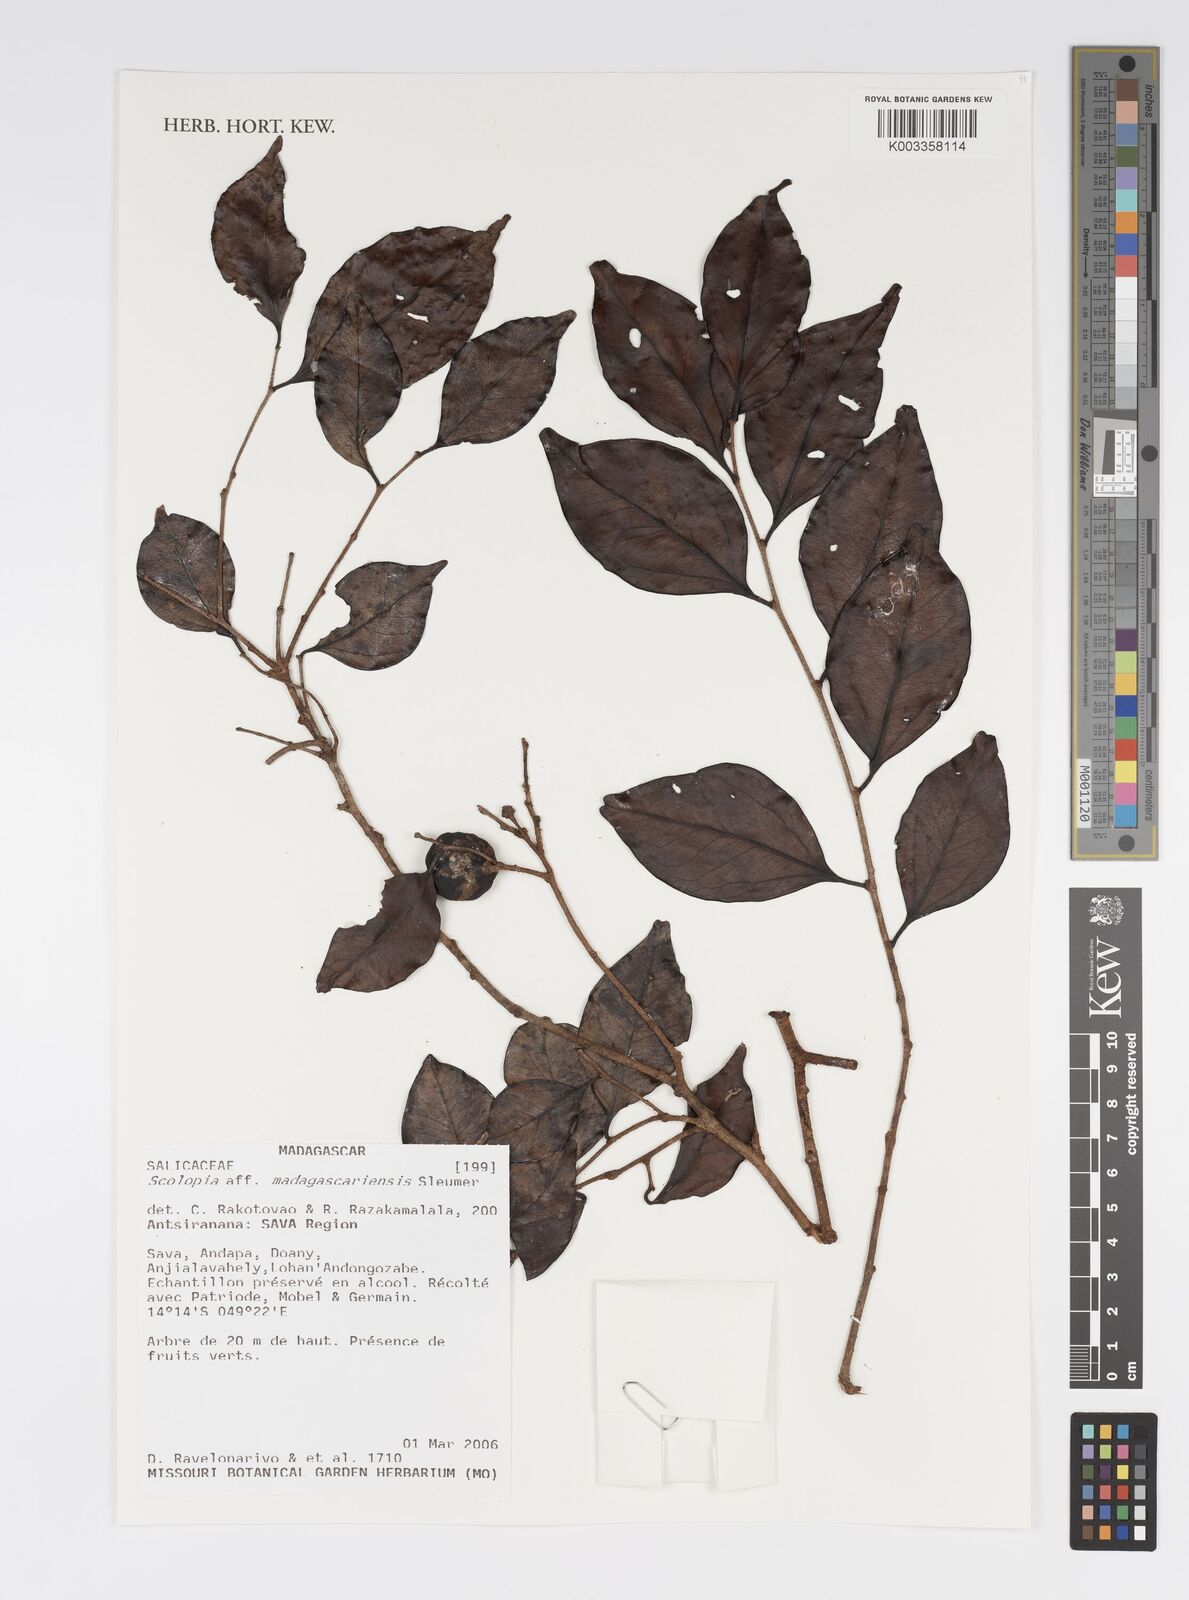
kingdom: Plantae
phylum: Tracheophyta
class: Magnoliopsida
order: Malpighiales
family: Salicaceae
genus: Scolopia
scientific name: Scolopia madagascariensis
